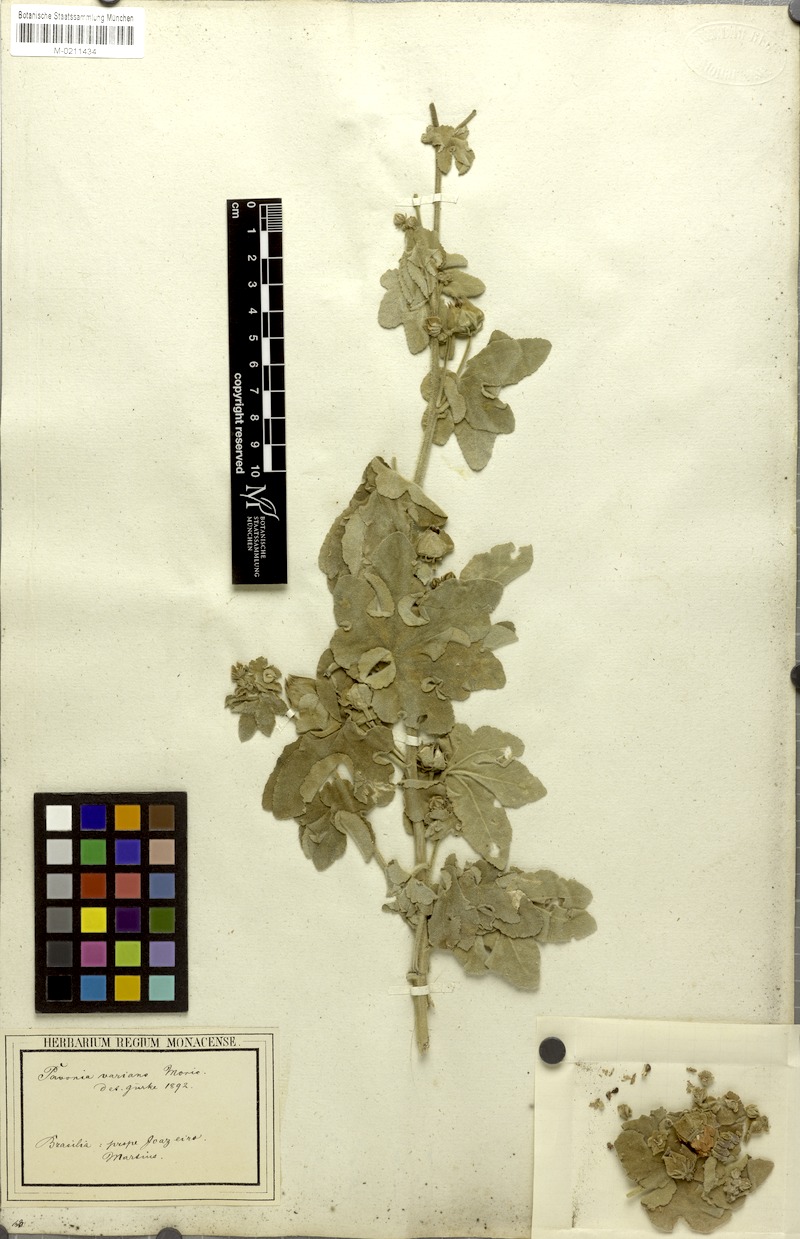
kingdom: Plantae
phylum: Tracheophyta
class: Magnoliopsida
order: Malvales
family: Malvaceae
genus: Pavonia
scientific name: Pavonia varians
